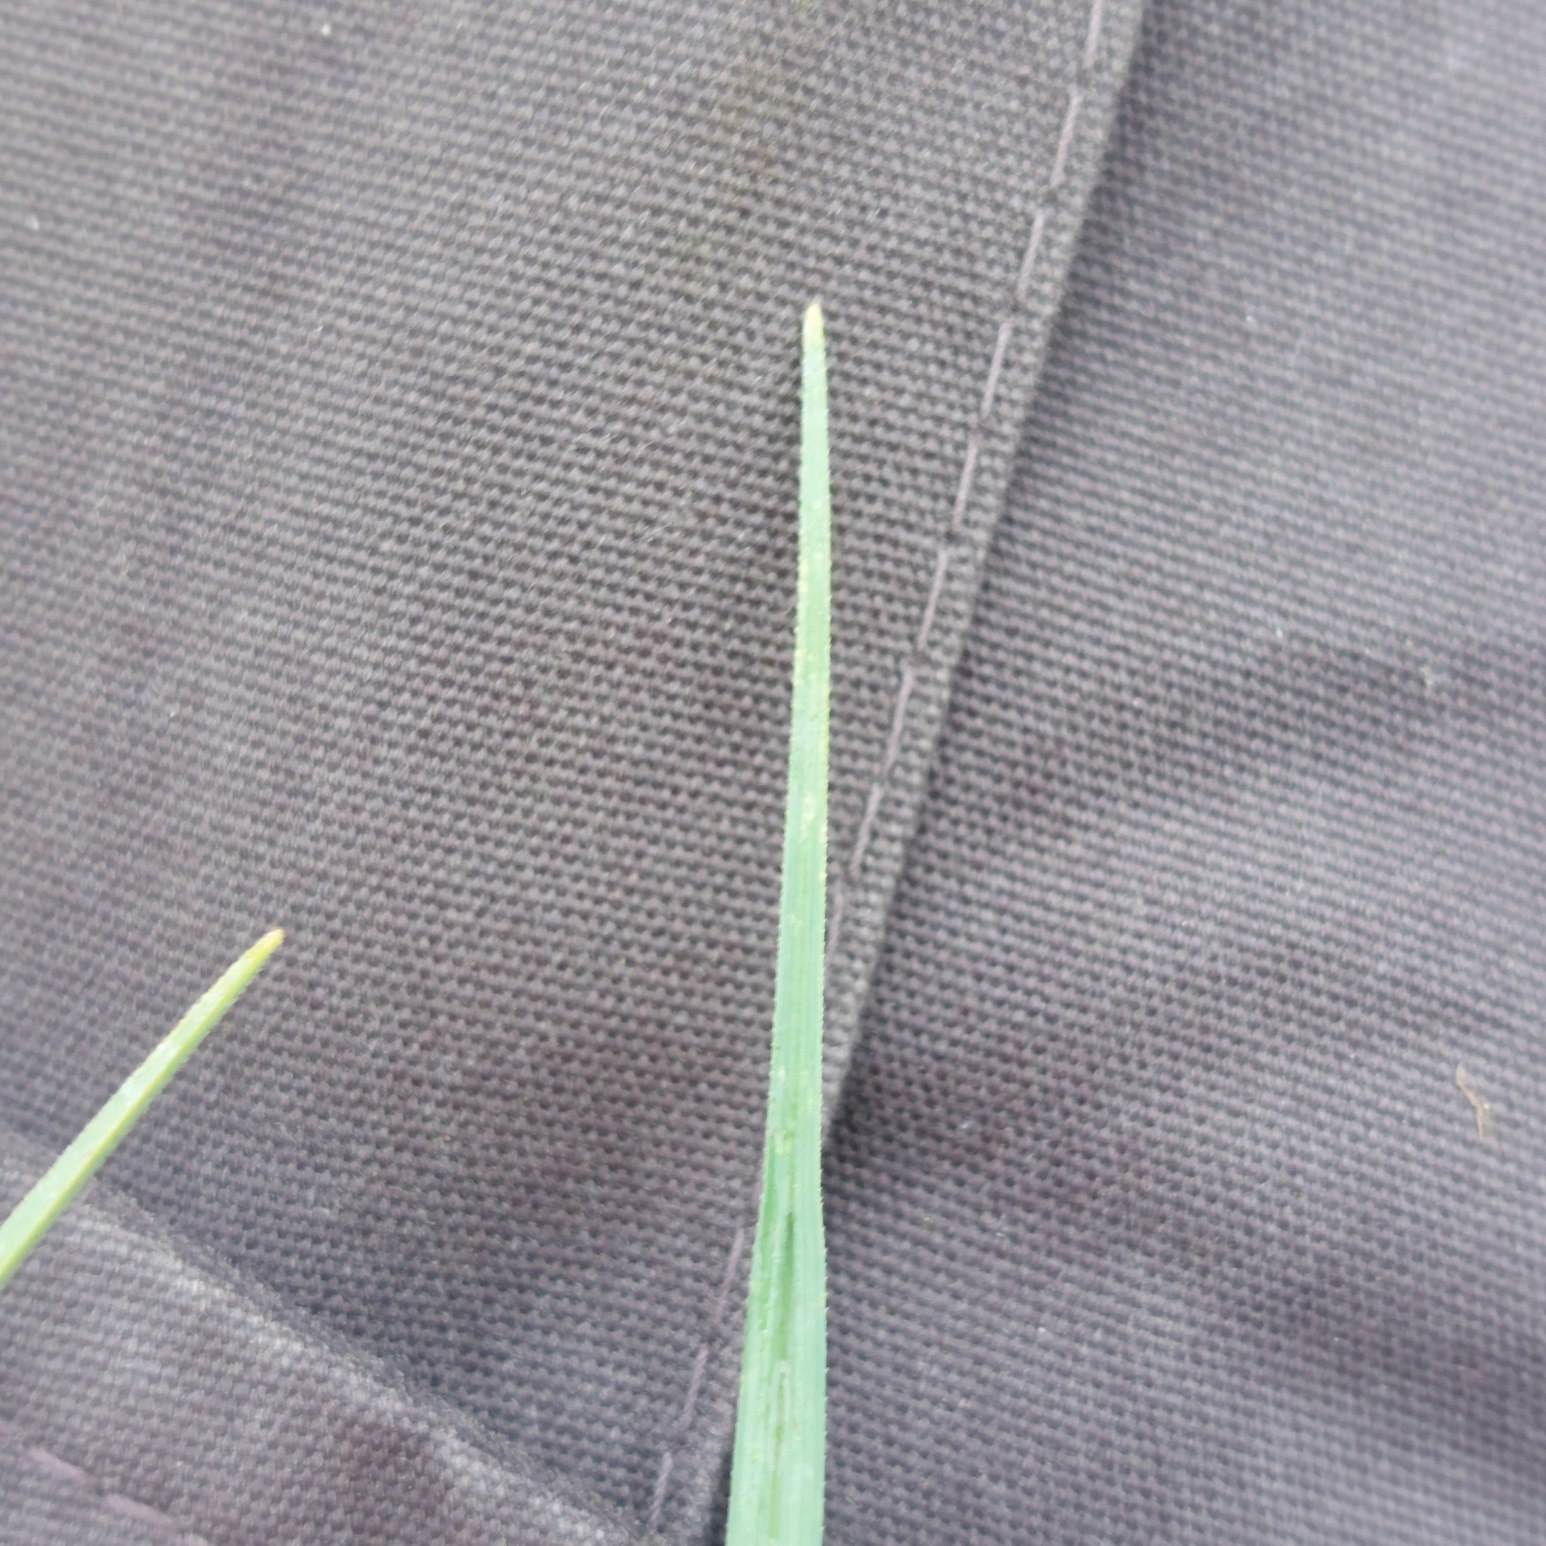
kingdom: Plantae
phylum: Tracheophyta
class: Liliopsida
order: Poales
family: Cyperaceae
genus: Carex
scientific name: Carex panicea
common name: Hirse-star
